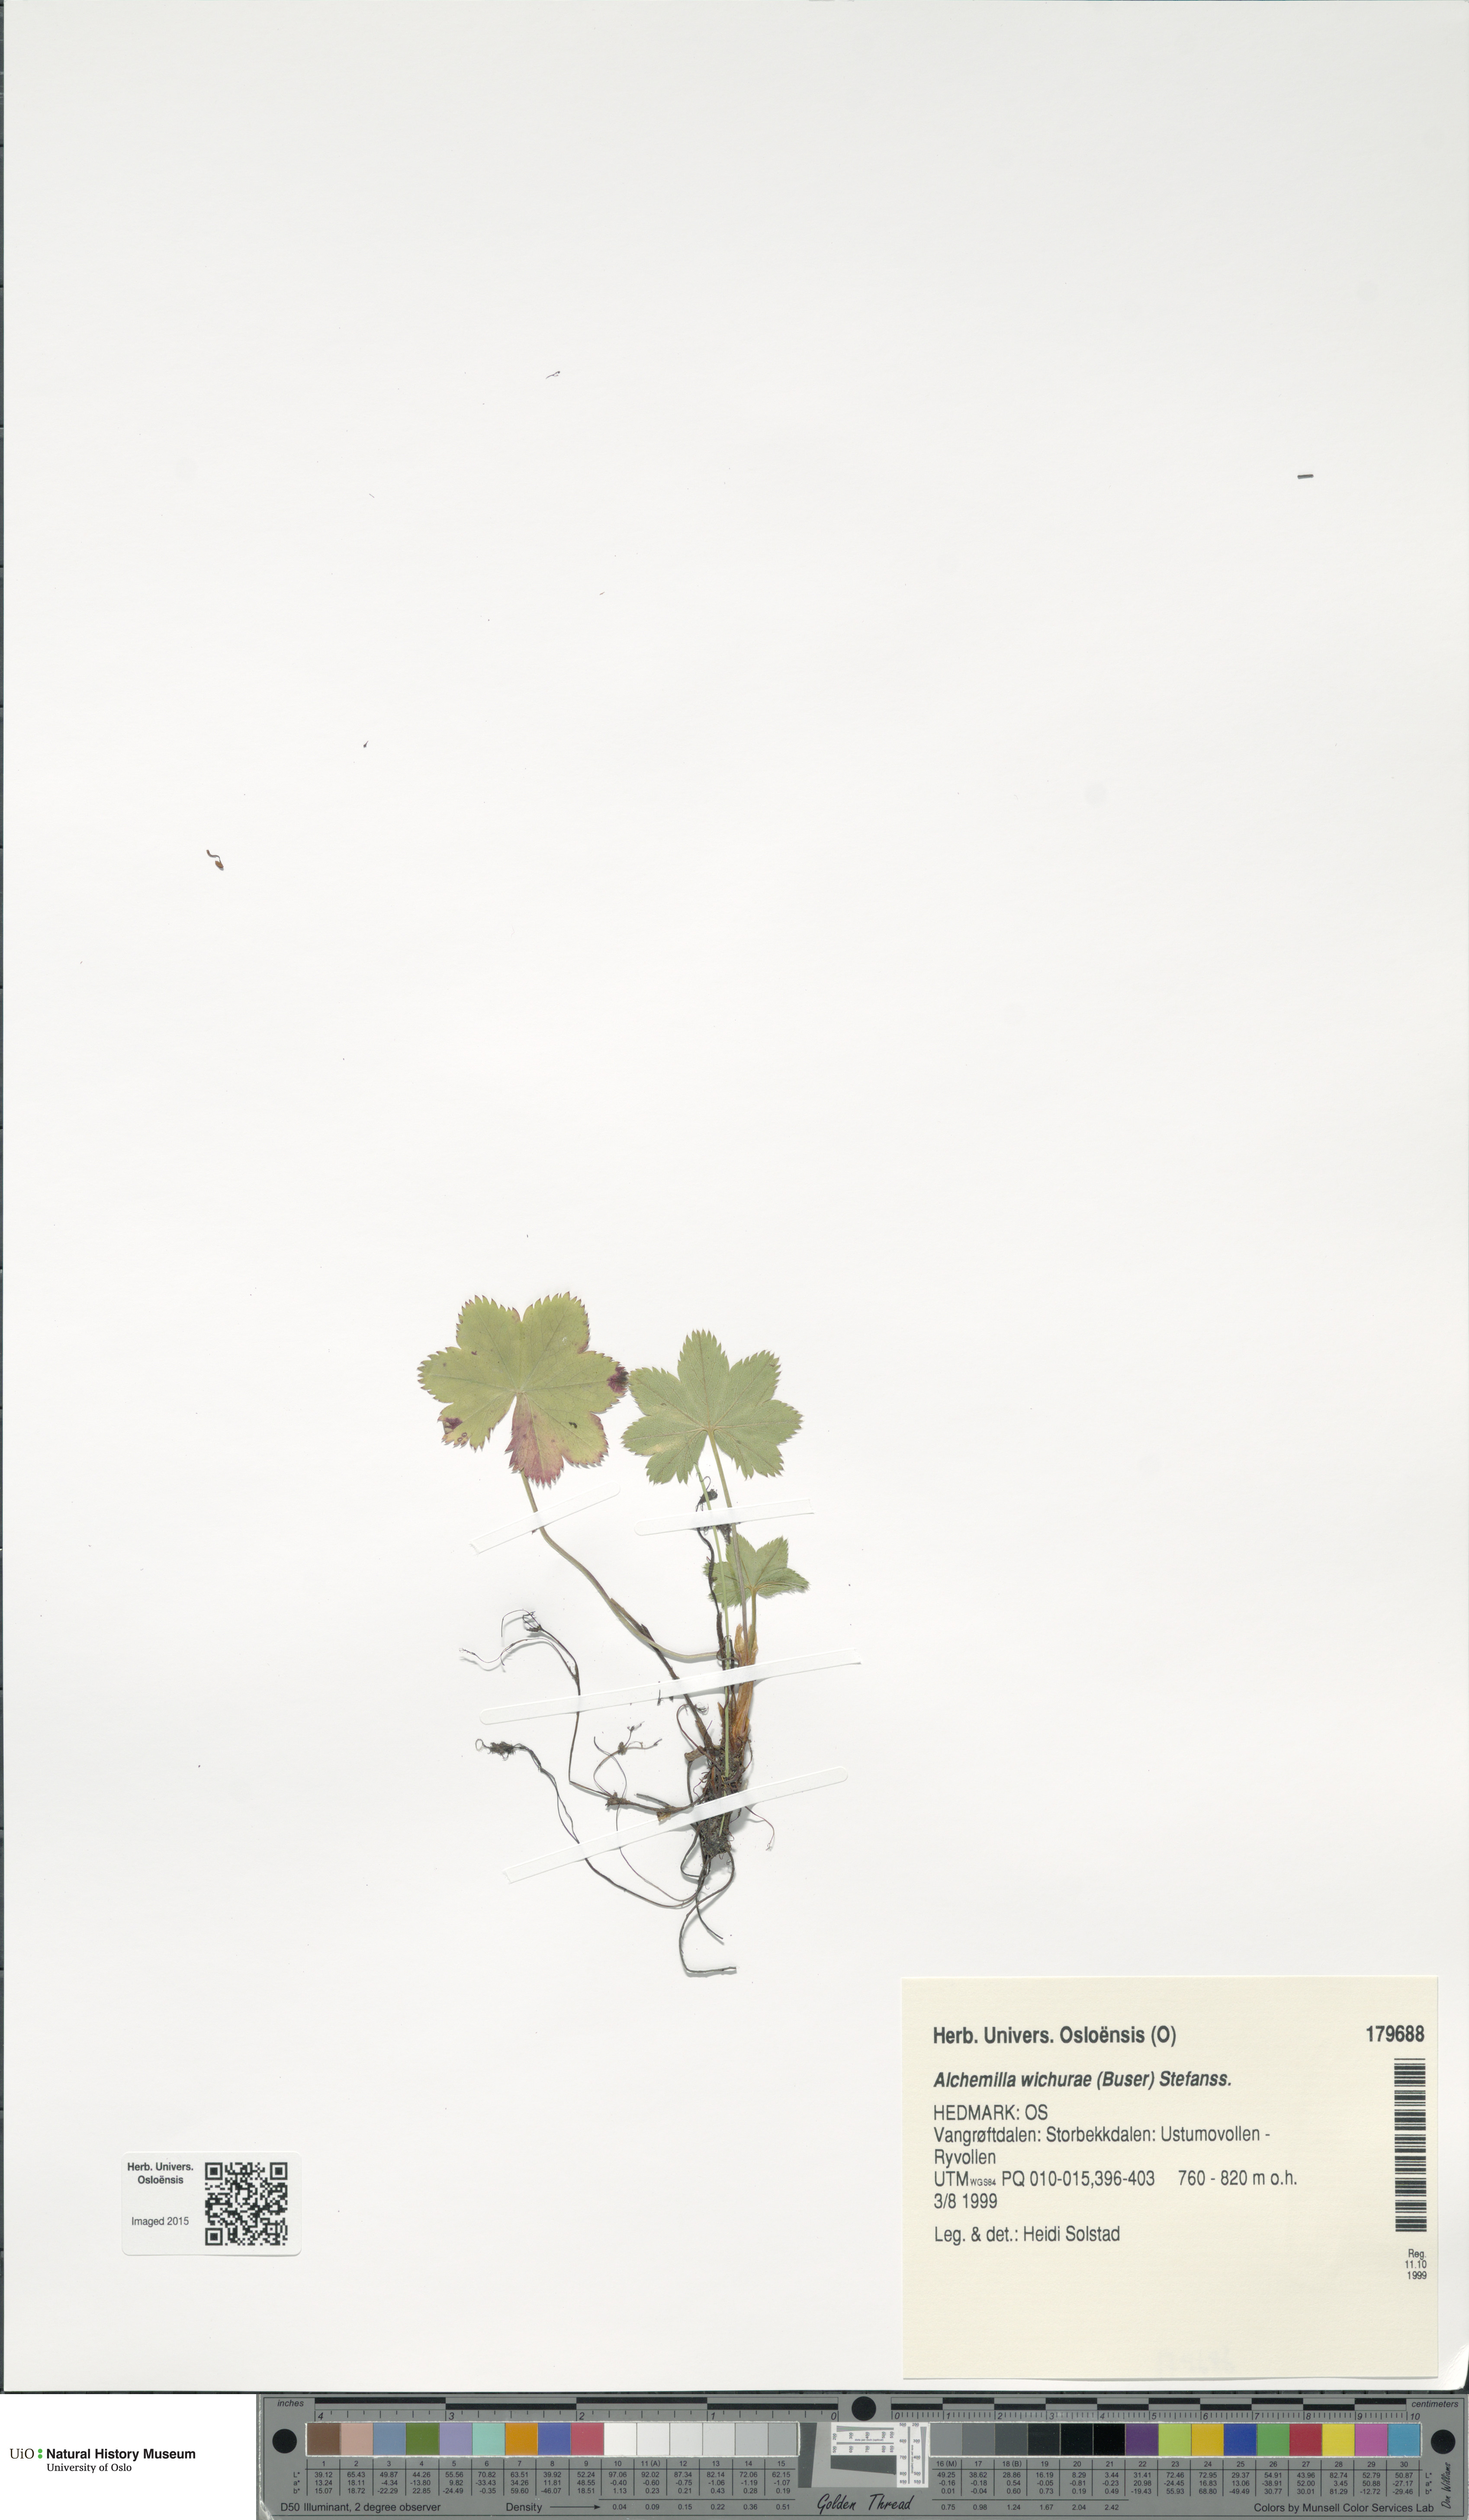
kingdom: Plantae
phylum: Tracheophyta
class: Magnoliopsida
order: Rosales
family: Rosaceae
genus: Alchemilla
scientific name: Alchemilla wichurae
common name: Rock lady's mantle
